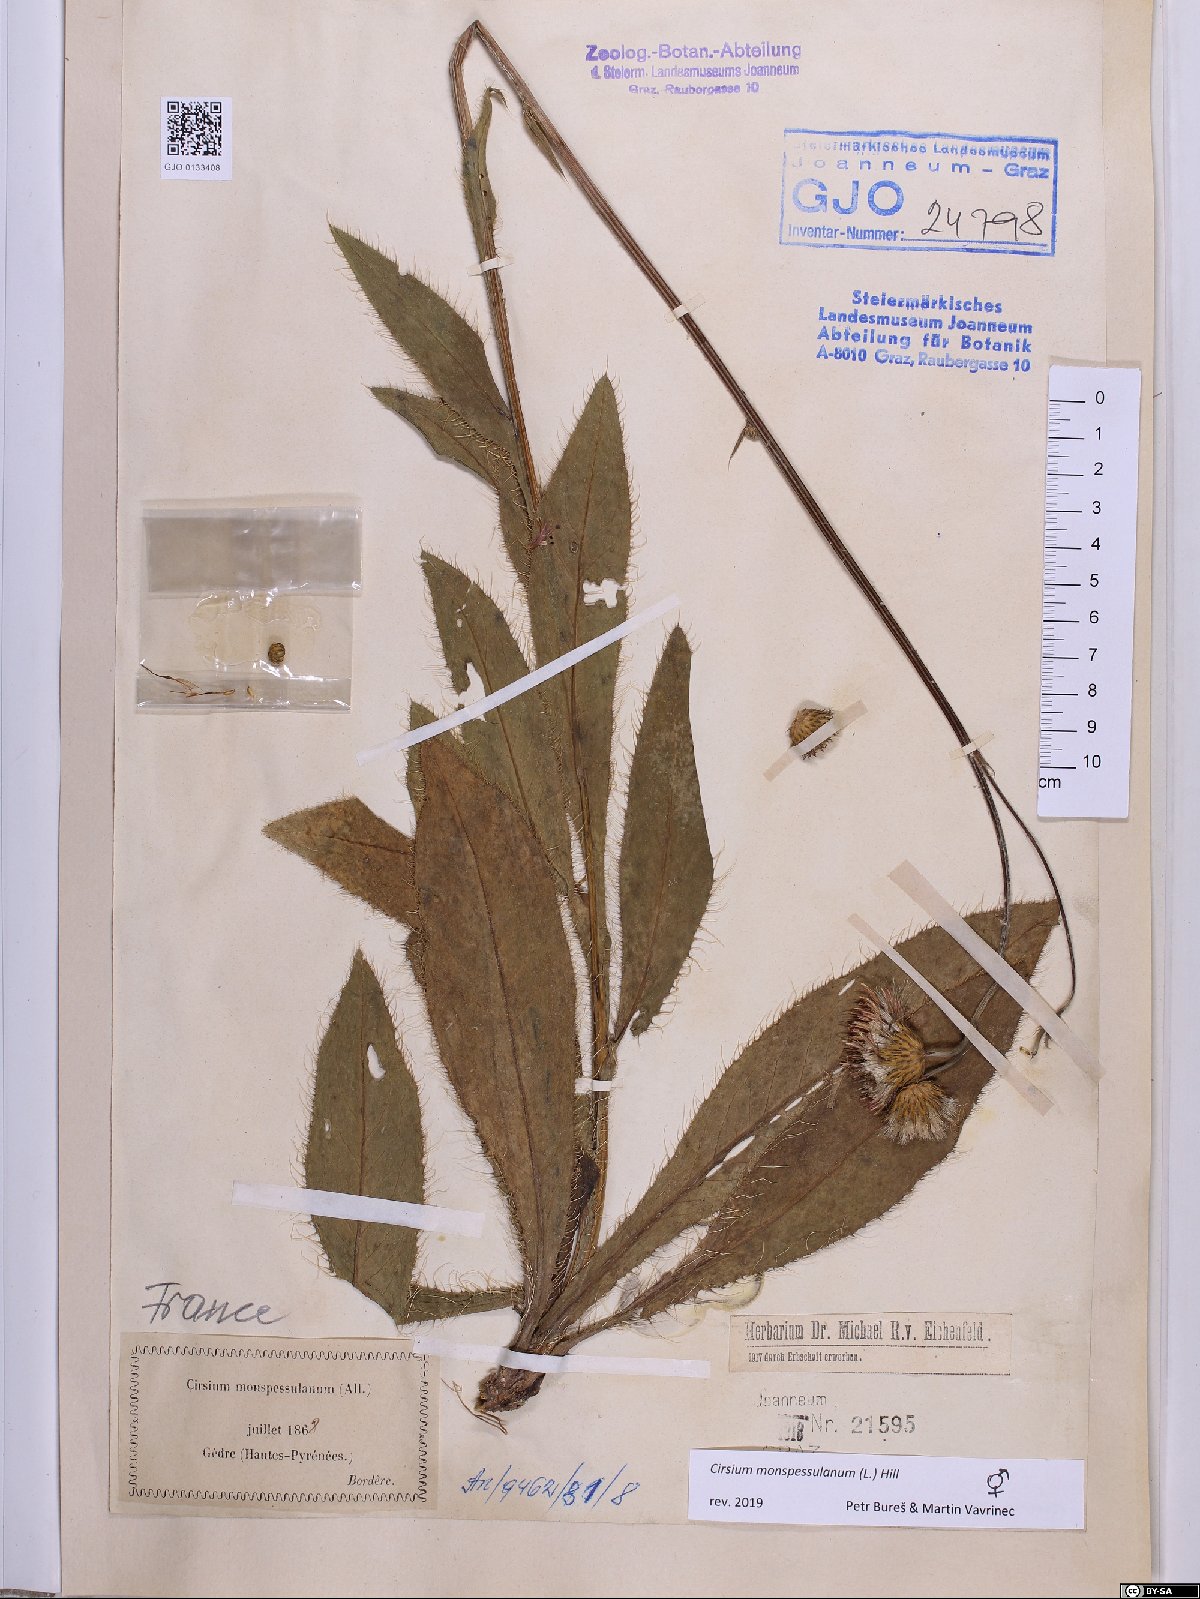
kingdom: Plantae
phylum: Tracheophyta
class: Magnoliopsida
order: Asterales
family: Asteraceae
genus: Cirsium
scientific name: Cirsium monspessulanum
